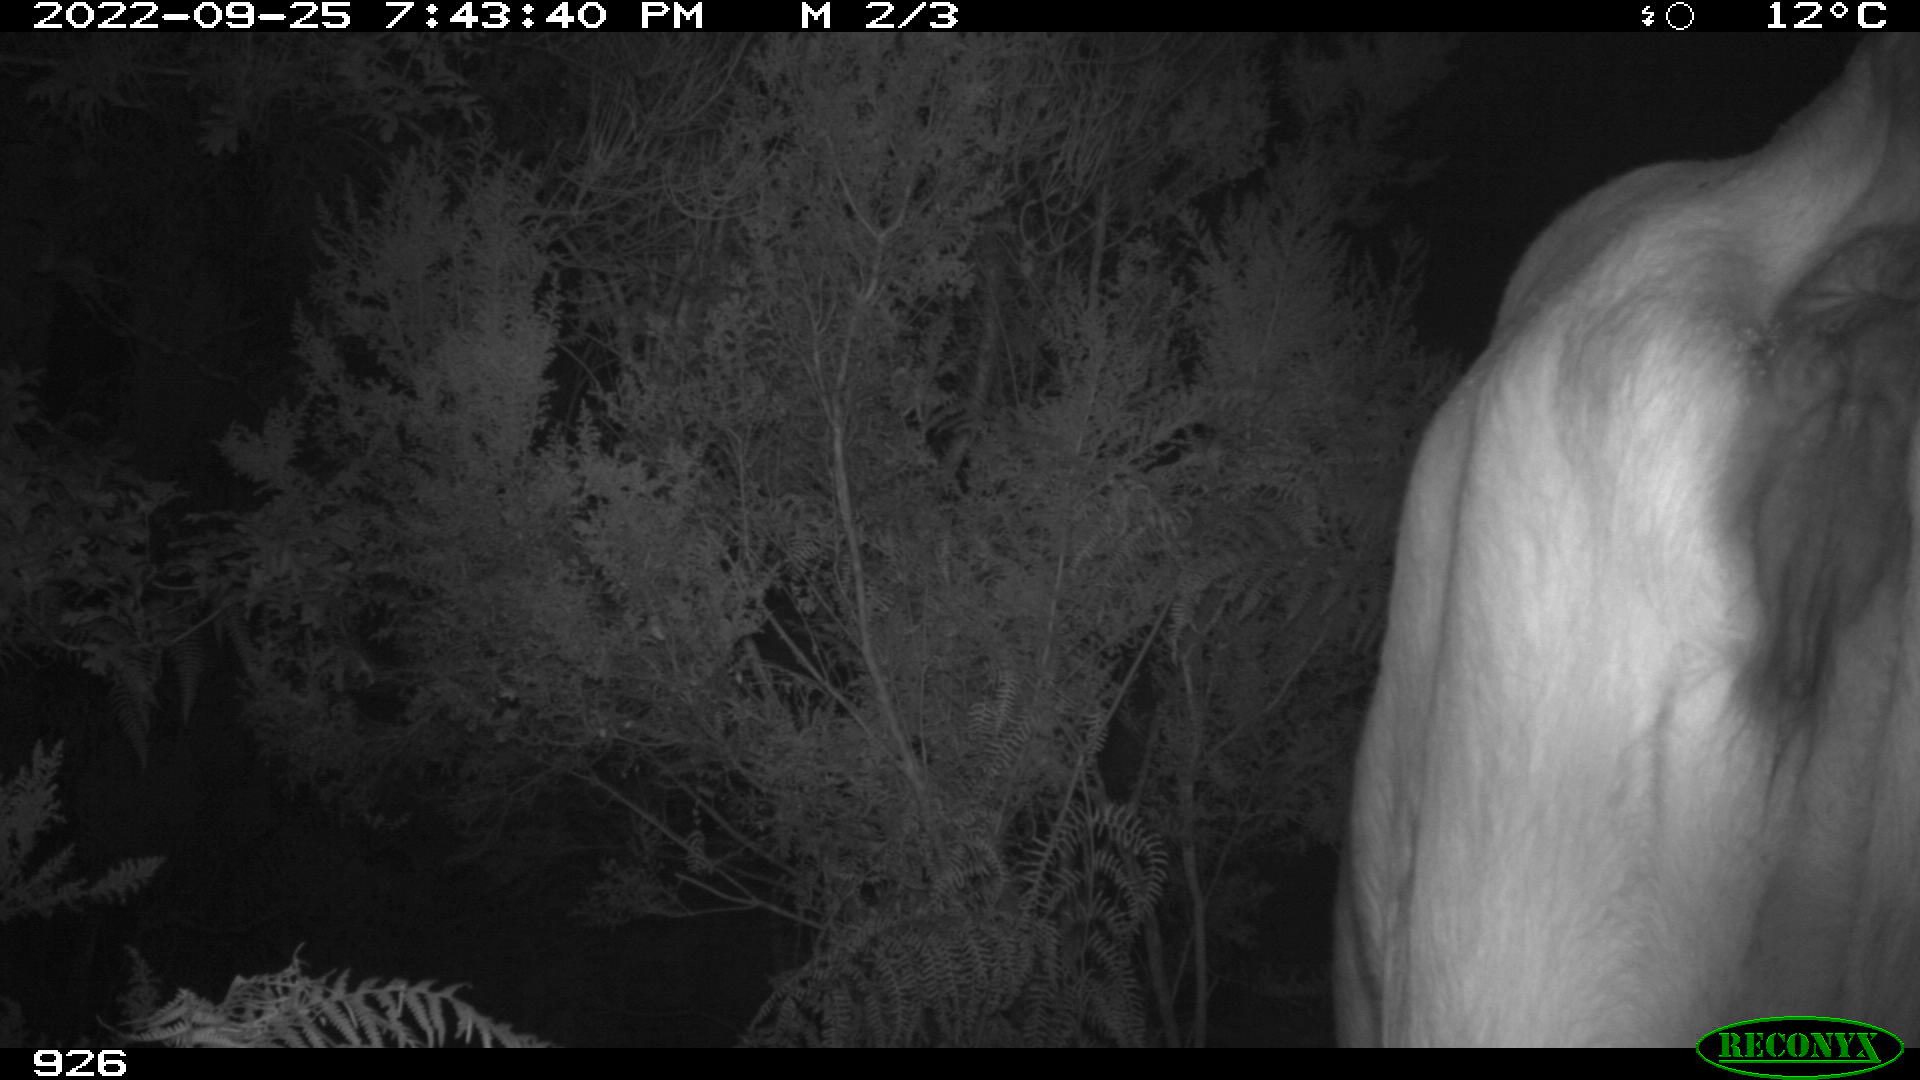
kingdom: Animalia
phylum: Chordata
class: Mammalia
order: Artiodactyla
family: Bovidae
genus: Bos
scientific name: Bos taurus
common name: Domesticated cattle
